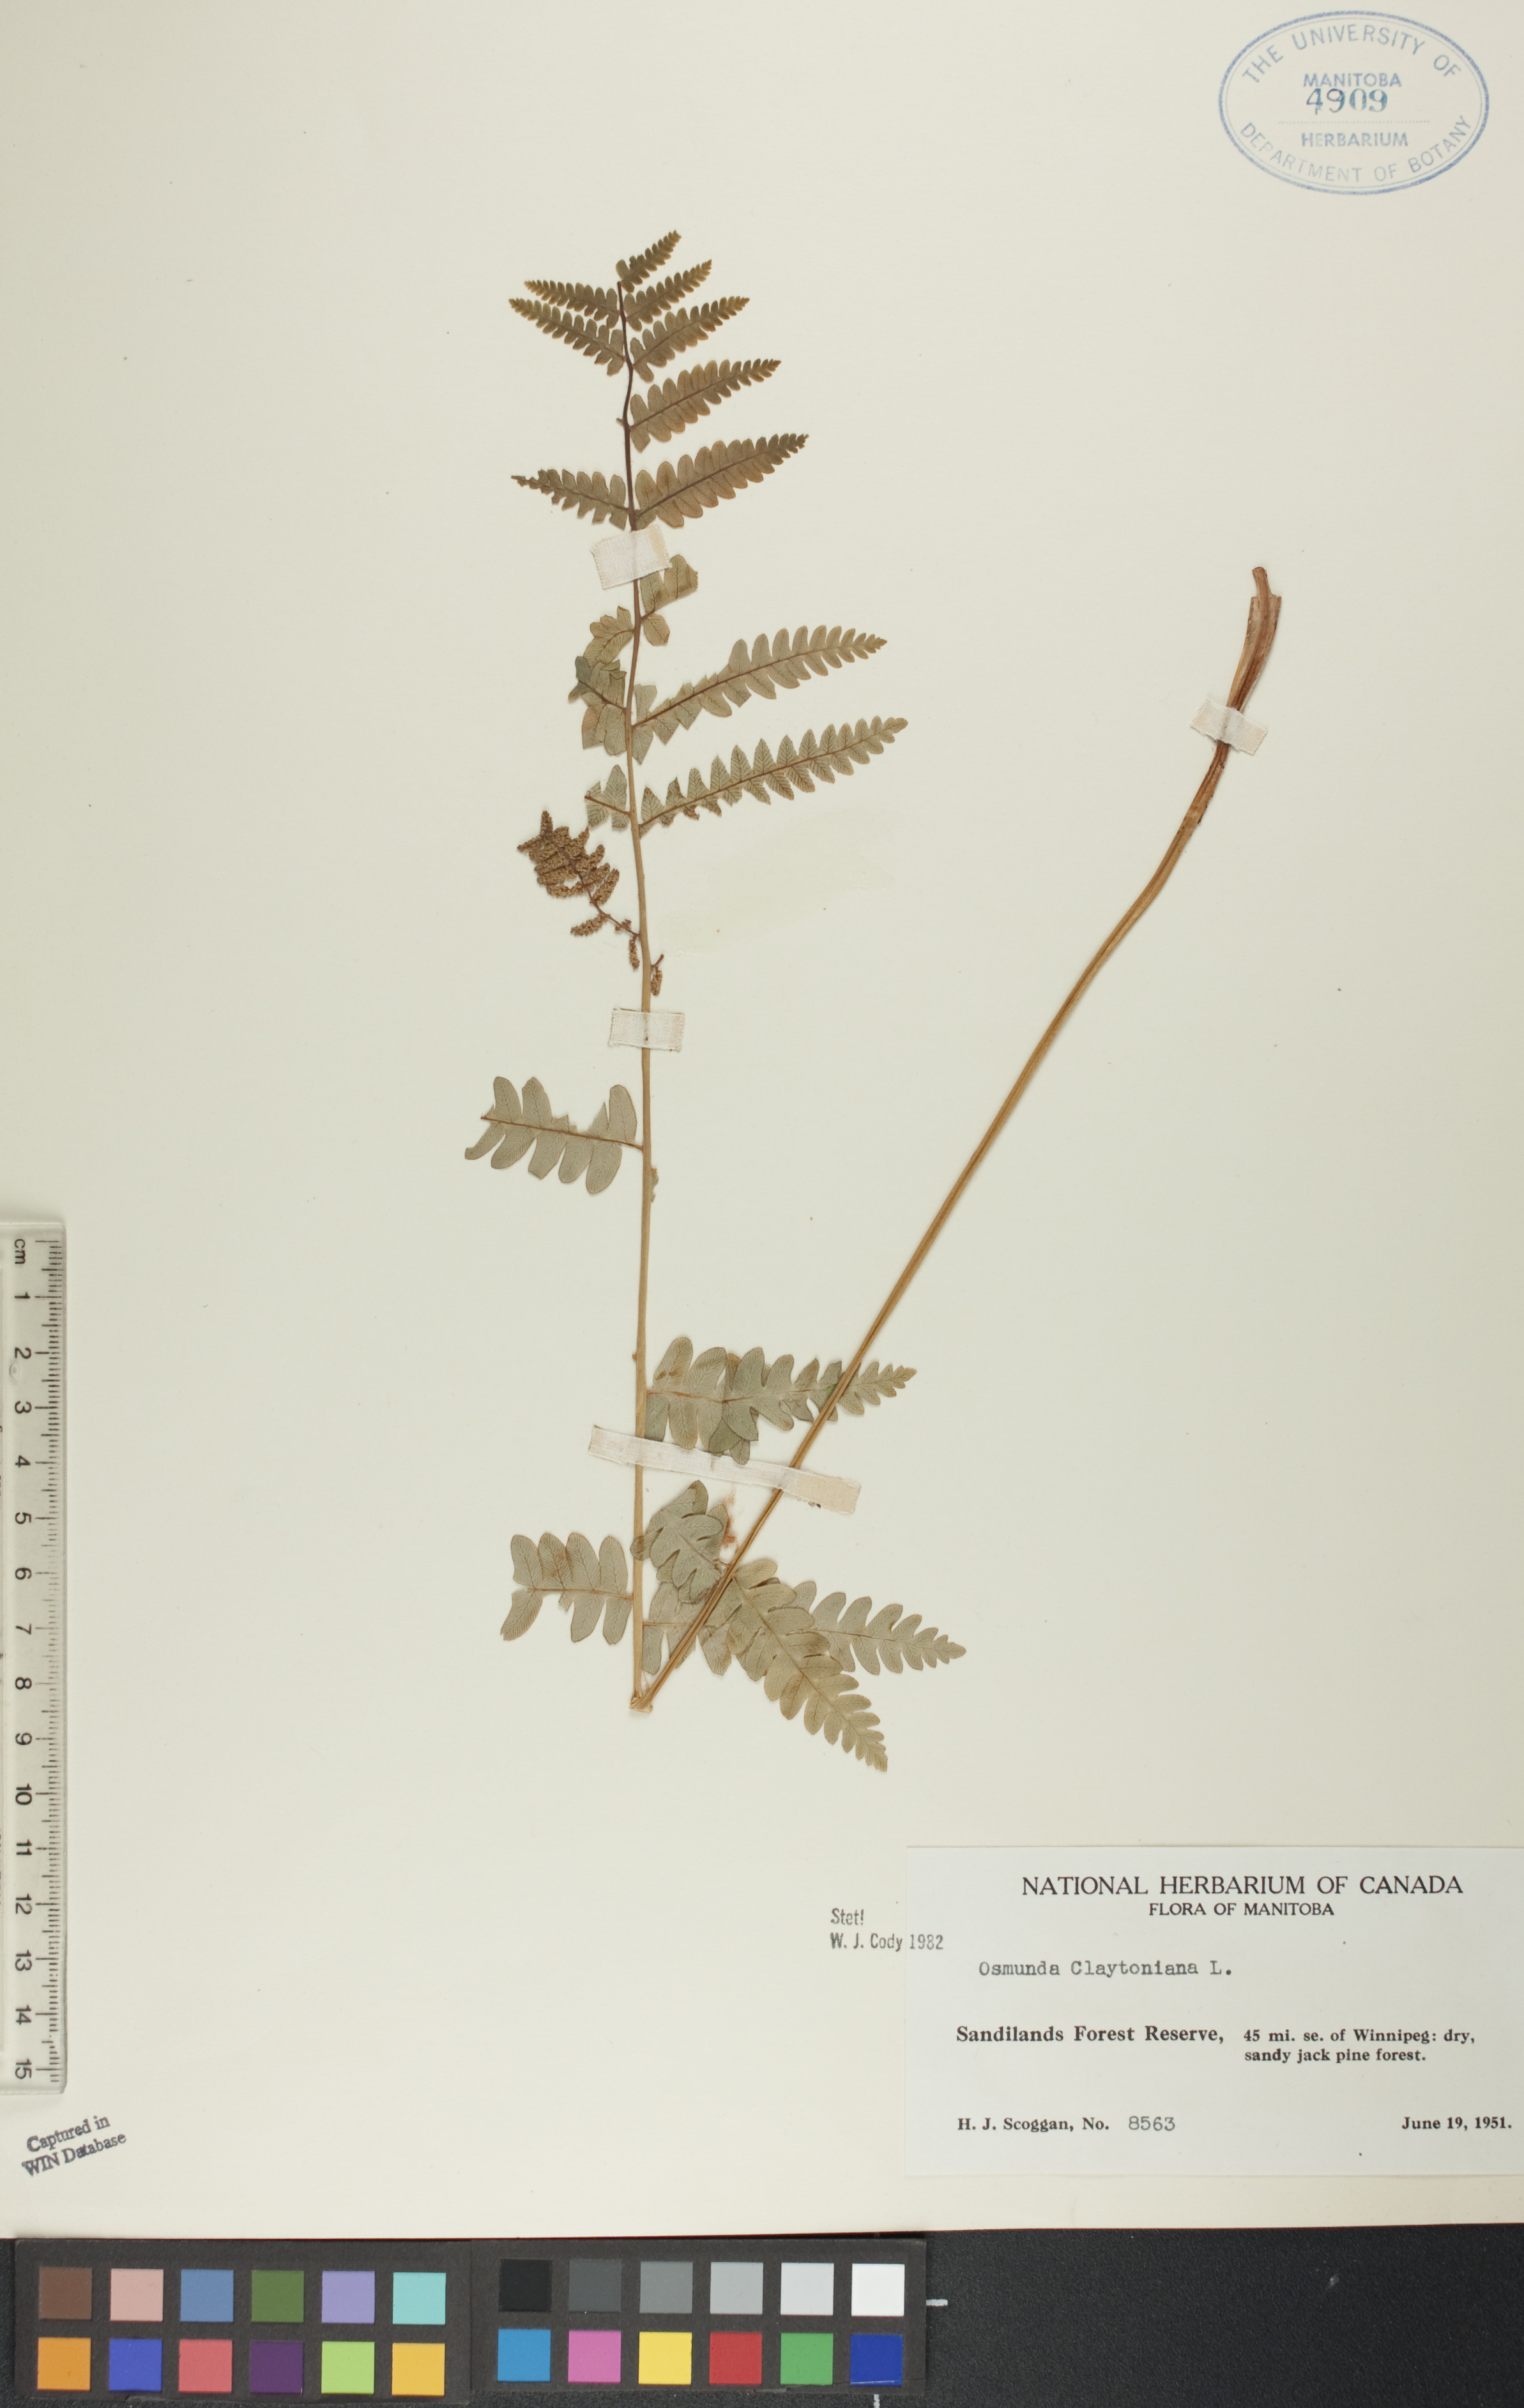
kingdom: Plantae
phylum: Tracheophyta
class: Polypodiopsida
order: Osmundales
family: Osmundaceae
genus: Claytosmunda
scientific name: Claytosmunda claytoniana
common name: Clayton's fern
